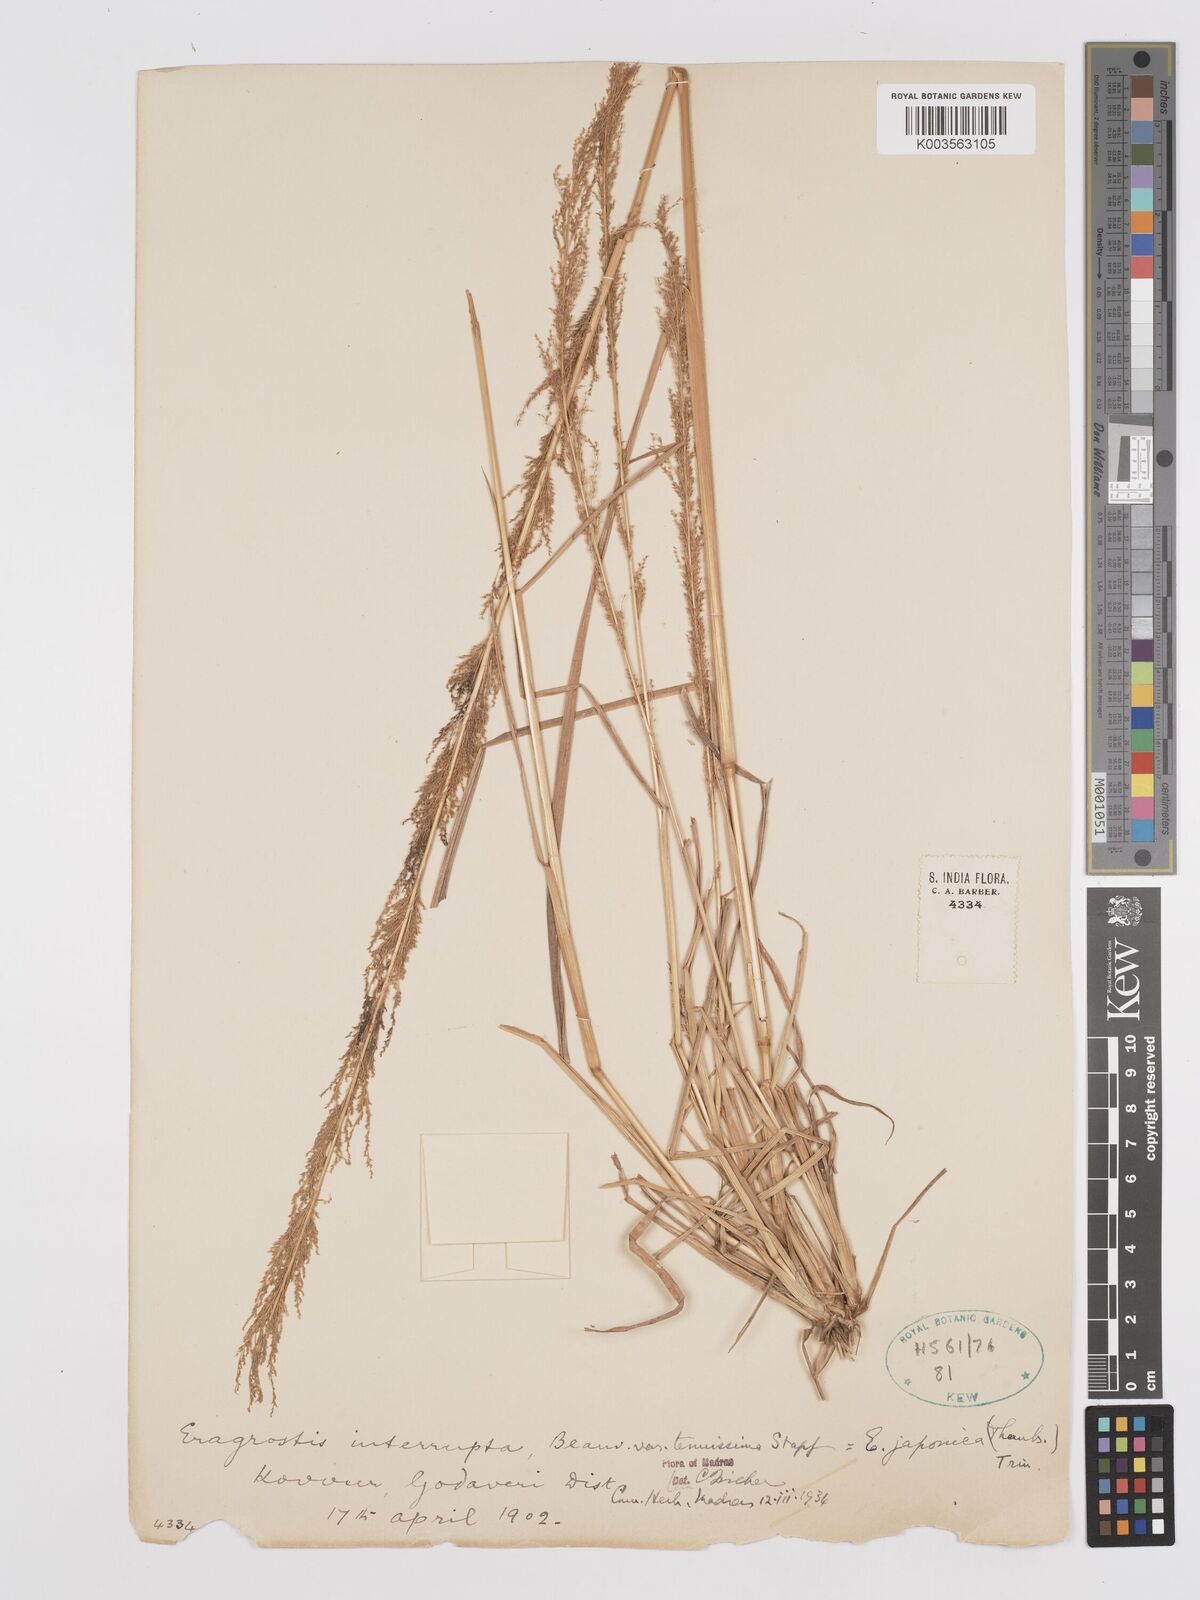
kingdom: Plantae
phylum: Tracheophyta
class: Liliopsida
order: Poales
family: Poaceae
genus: Eragrostis
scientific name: Eragrostis japonica
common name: Pond lovegrass
